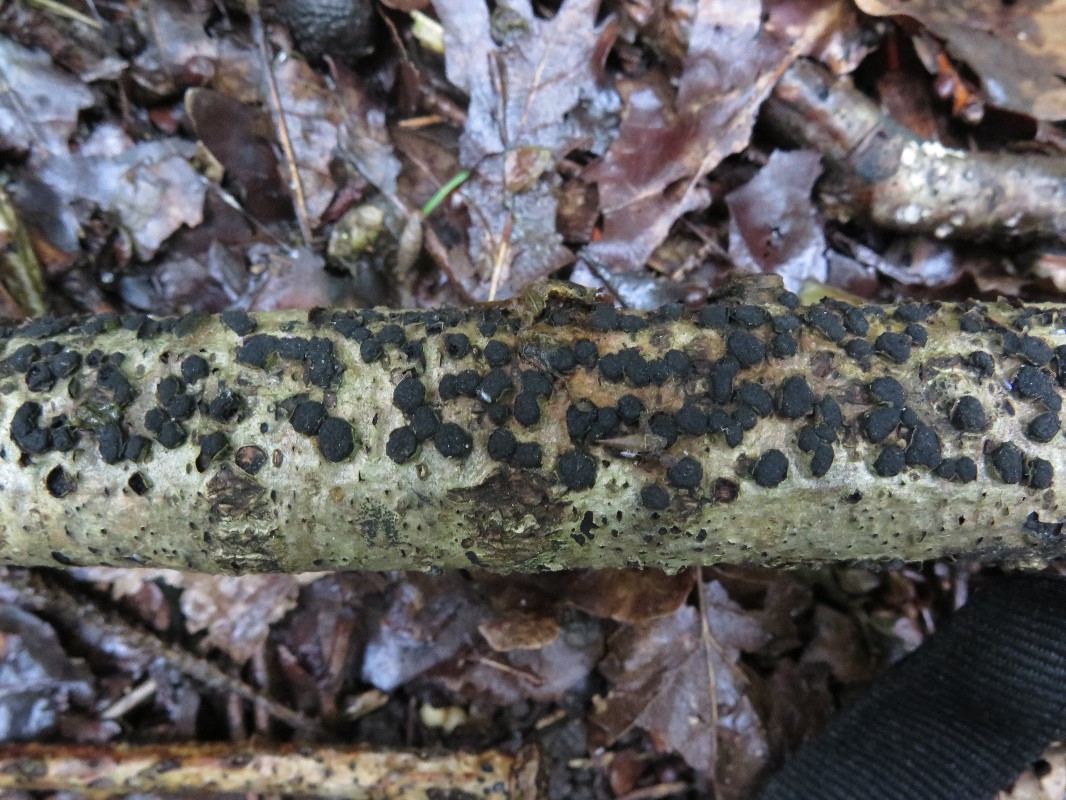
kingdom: Fungi
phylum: Ascomycota
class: Sordariomycetes
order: Xylariales
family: Diatrypaceae
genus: Diatrypella
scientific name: Diatrypella quercina
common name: ege-kulskorpe
